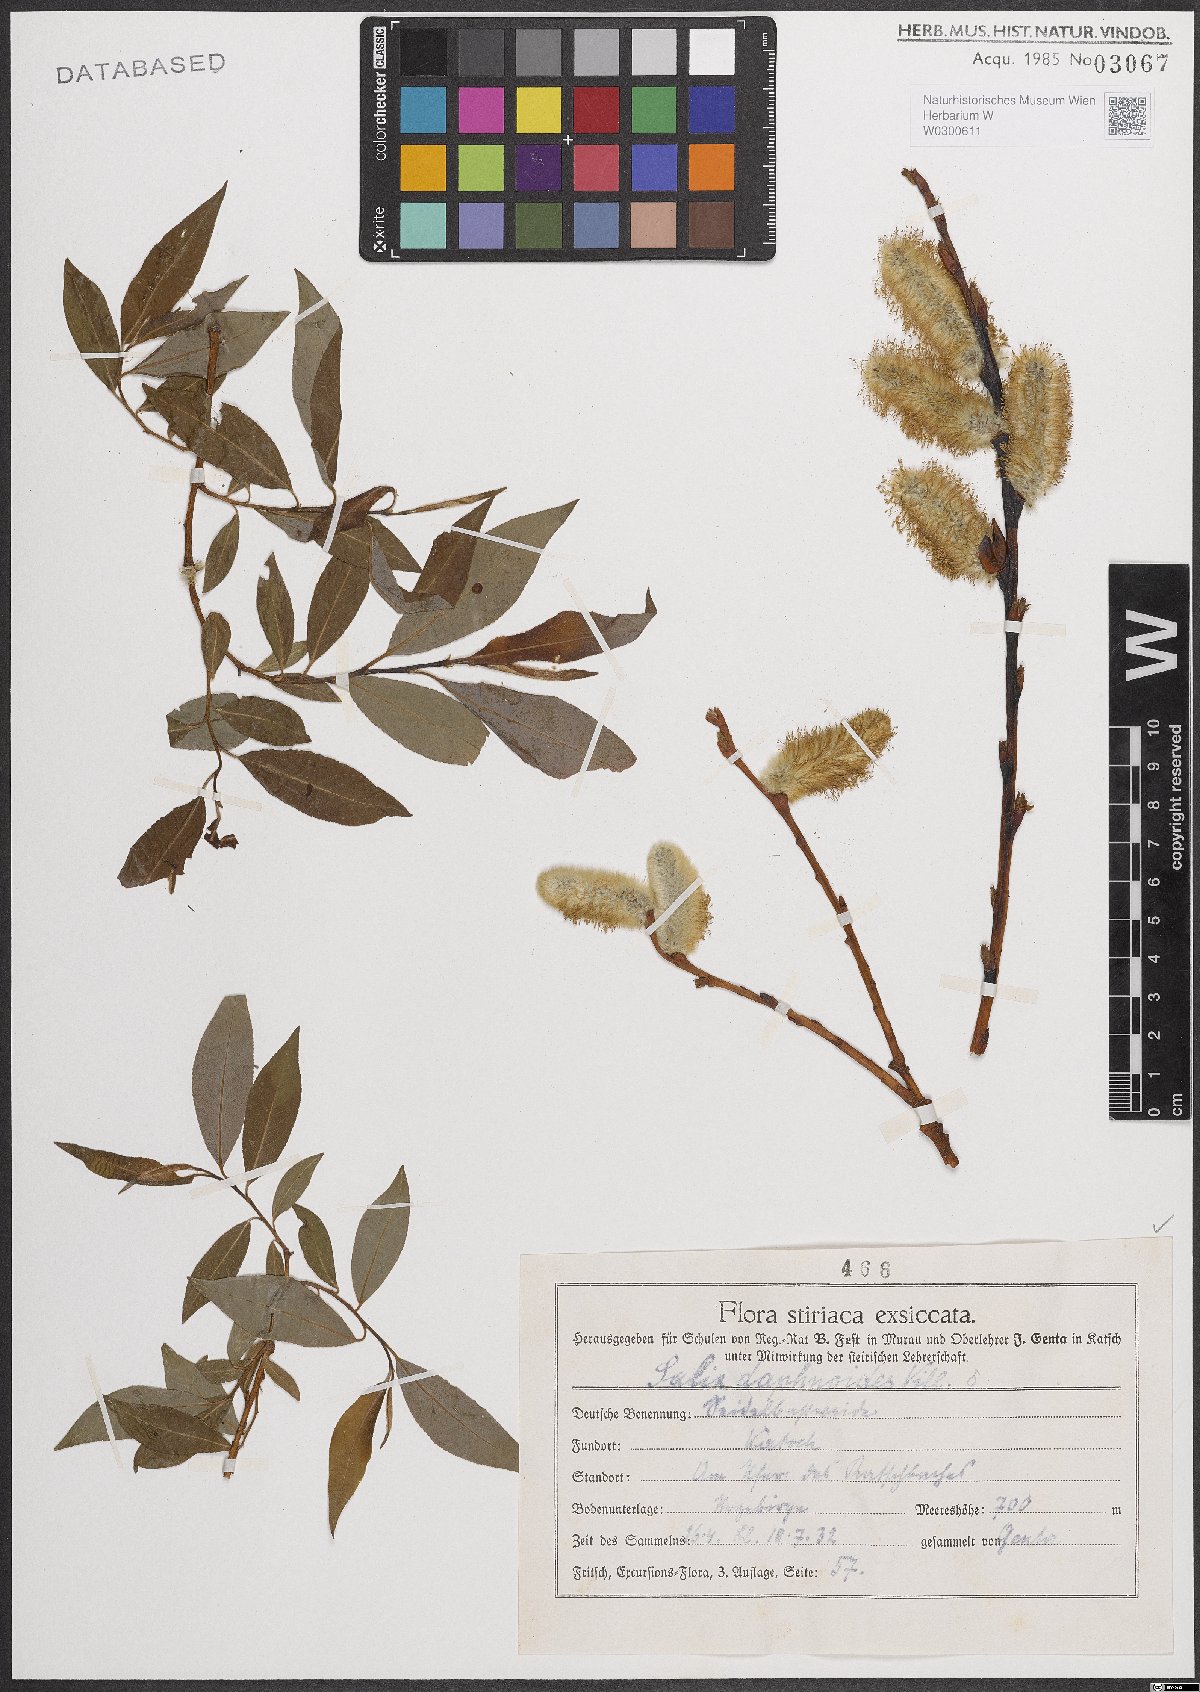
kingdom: Plantae
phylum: Tracheophyta
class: Magnoliopsida
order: Malpighiales
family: Salicaceae
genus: Salix
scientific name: Salix daphnoides
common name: European violet-willow
